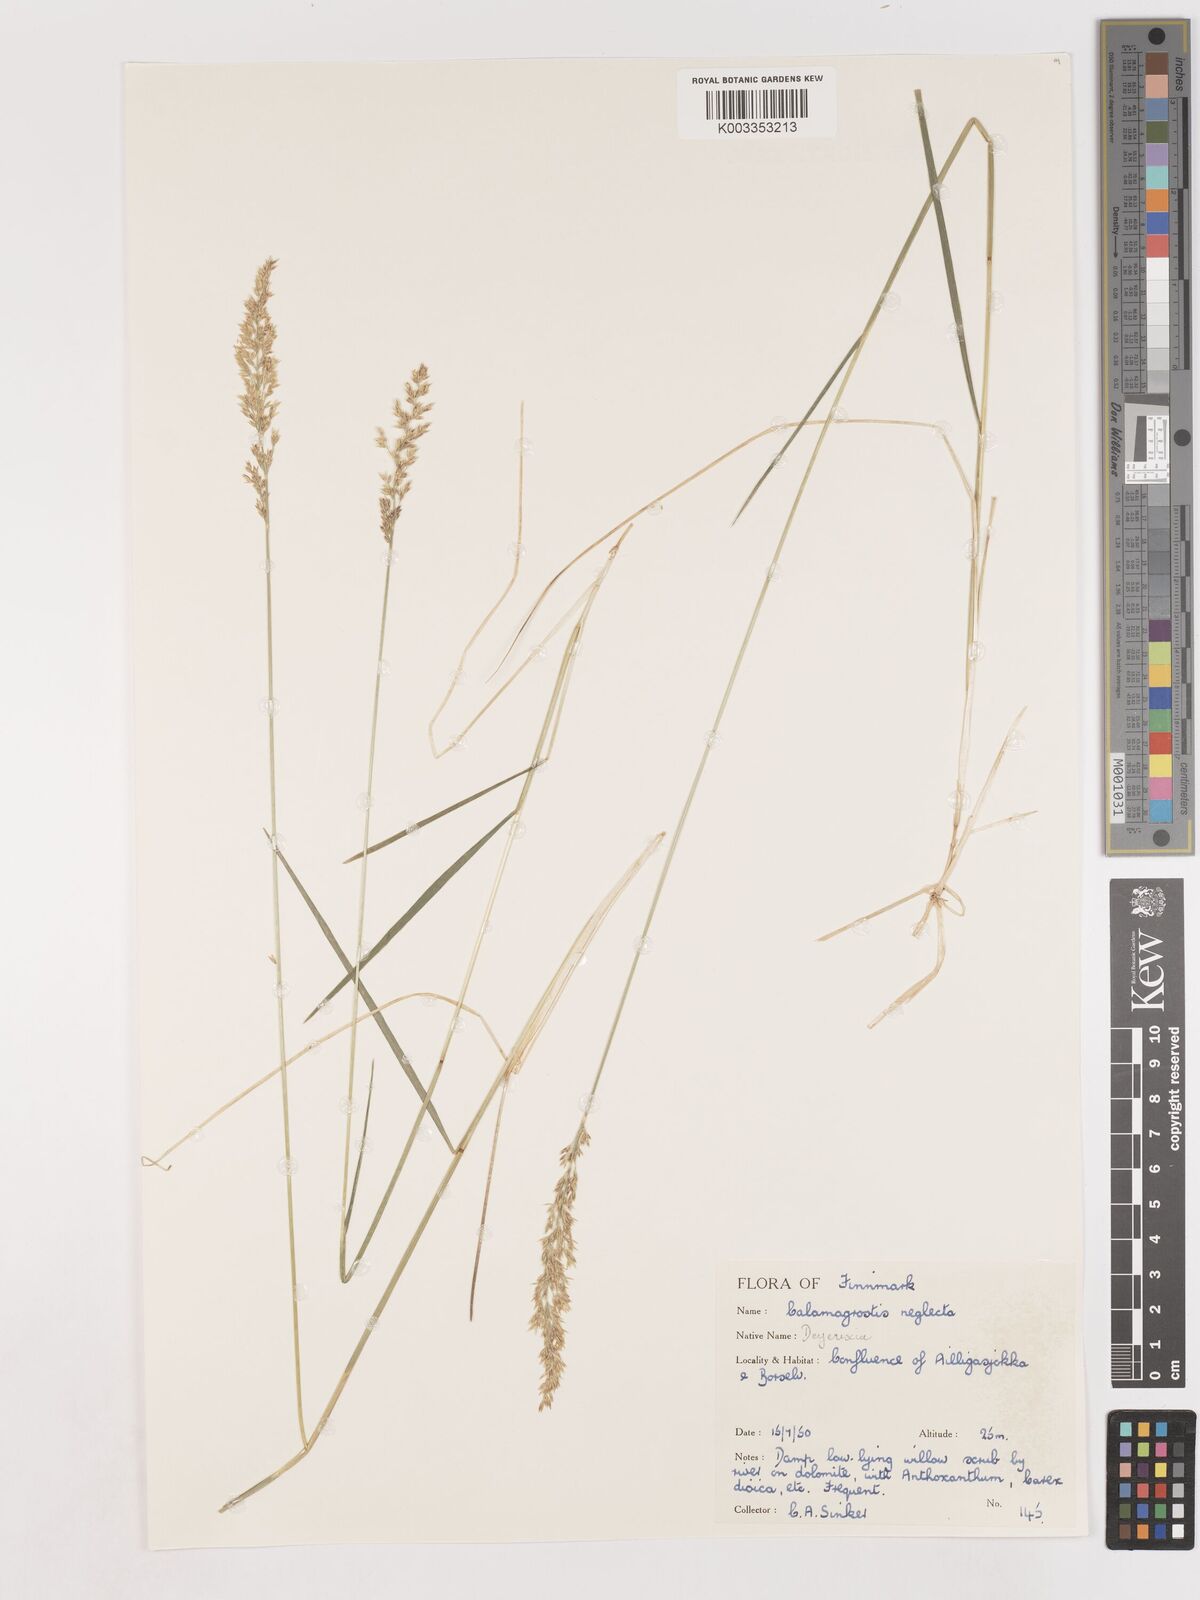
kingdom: Plantae
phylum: Tracheophyta
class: Liliopsida
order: Poales
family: Poaceae
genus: Cinnagrostis
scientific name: Cinnagrostis recta
